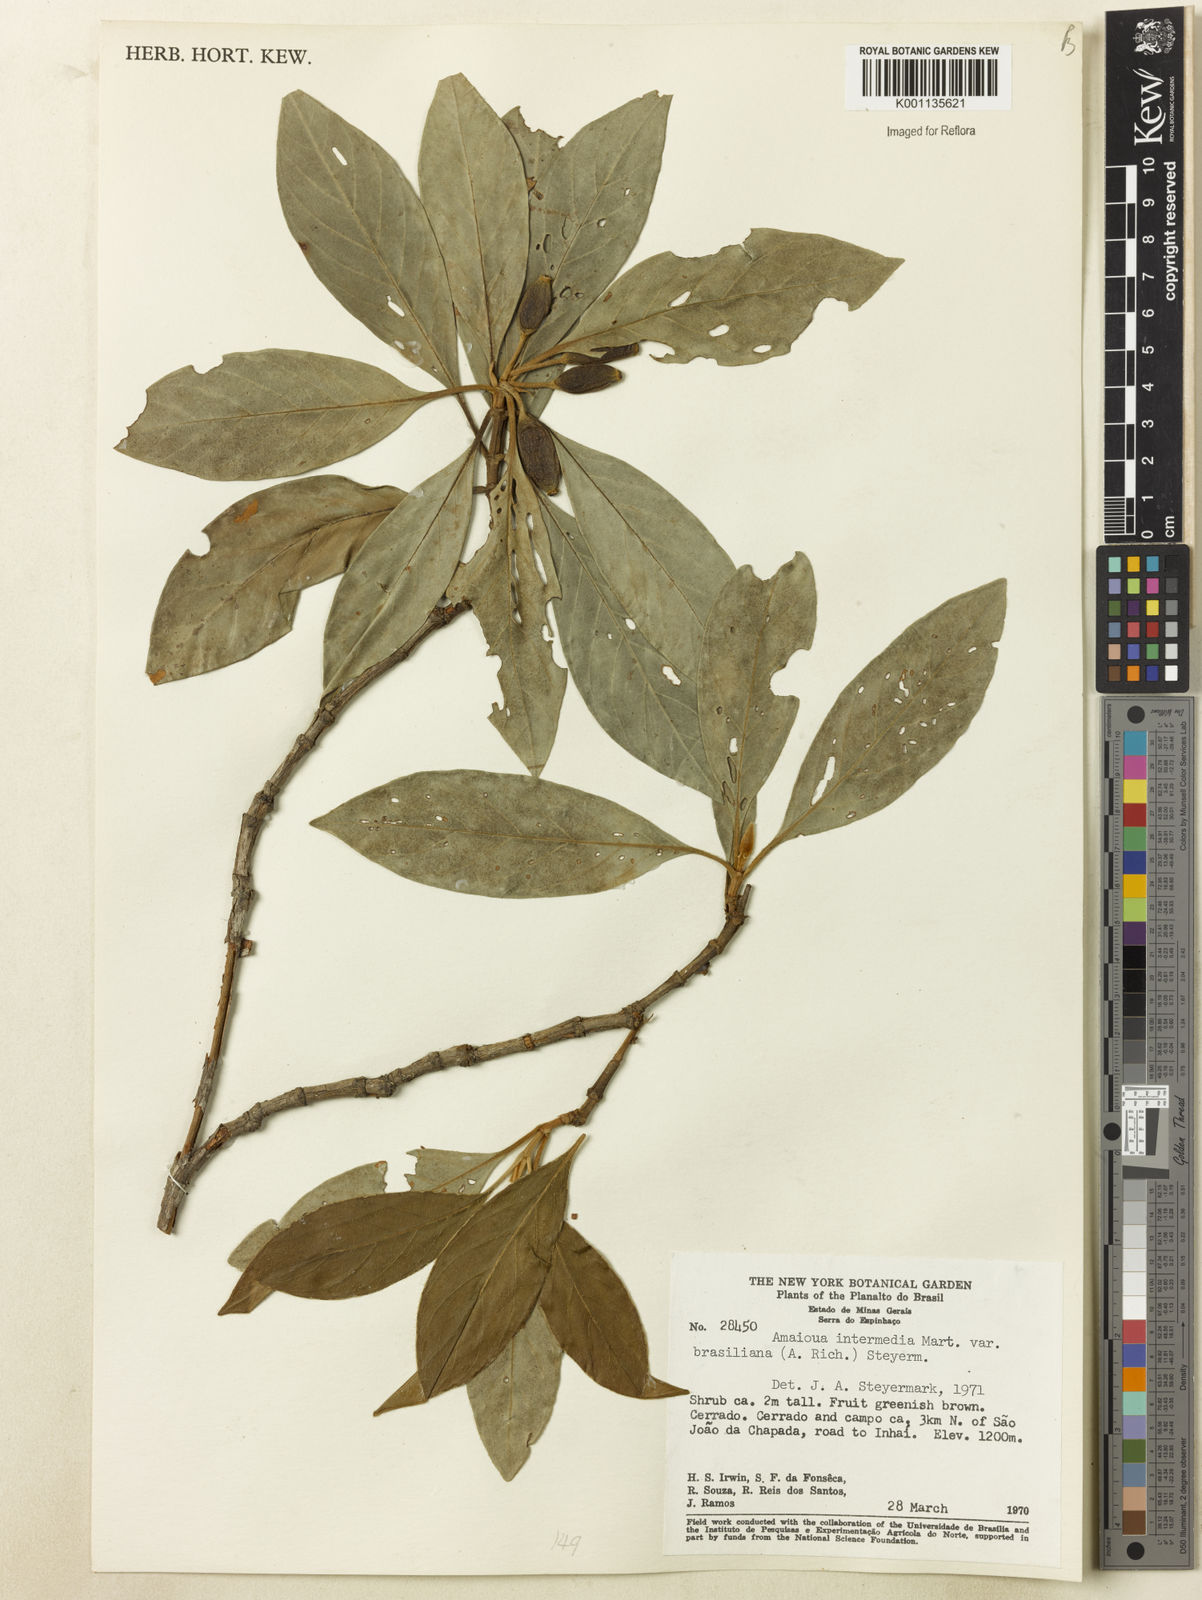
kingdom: Plantae
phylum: Tracheophyta
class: Magnoliopsida
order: Gentianales
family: Rubiaceae
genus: Amaioua
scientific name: Amaioua intermedia
